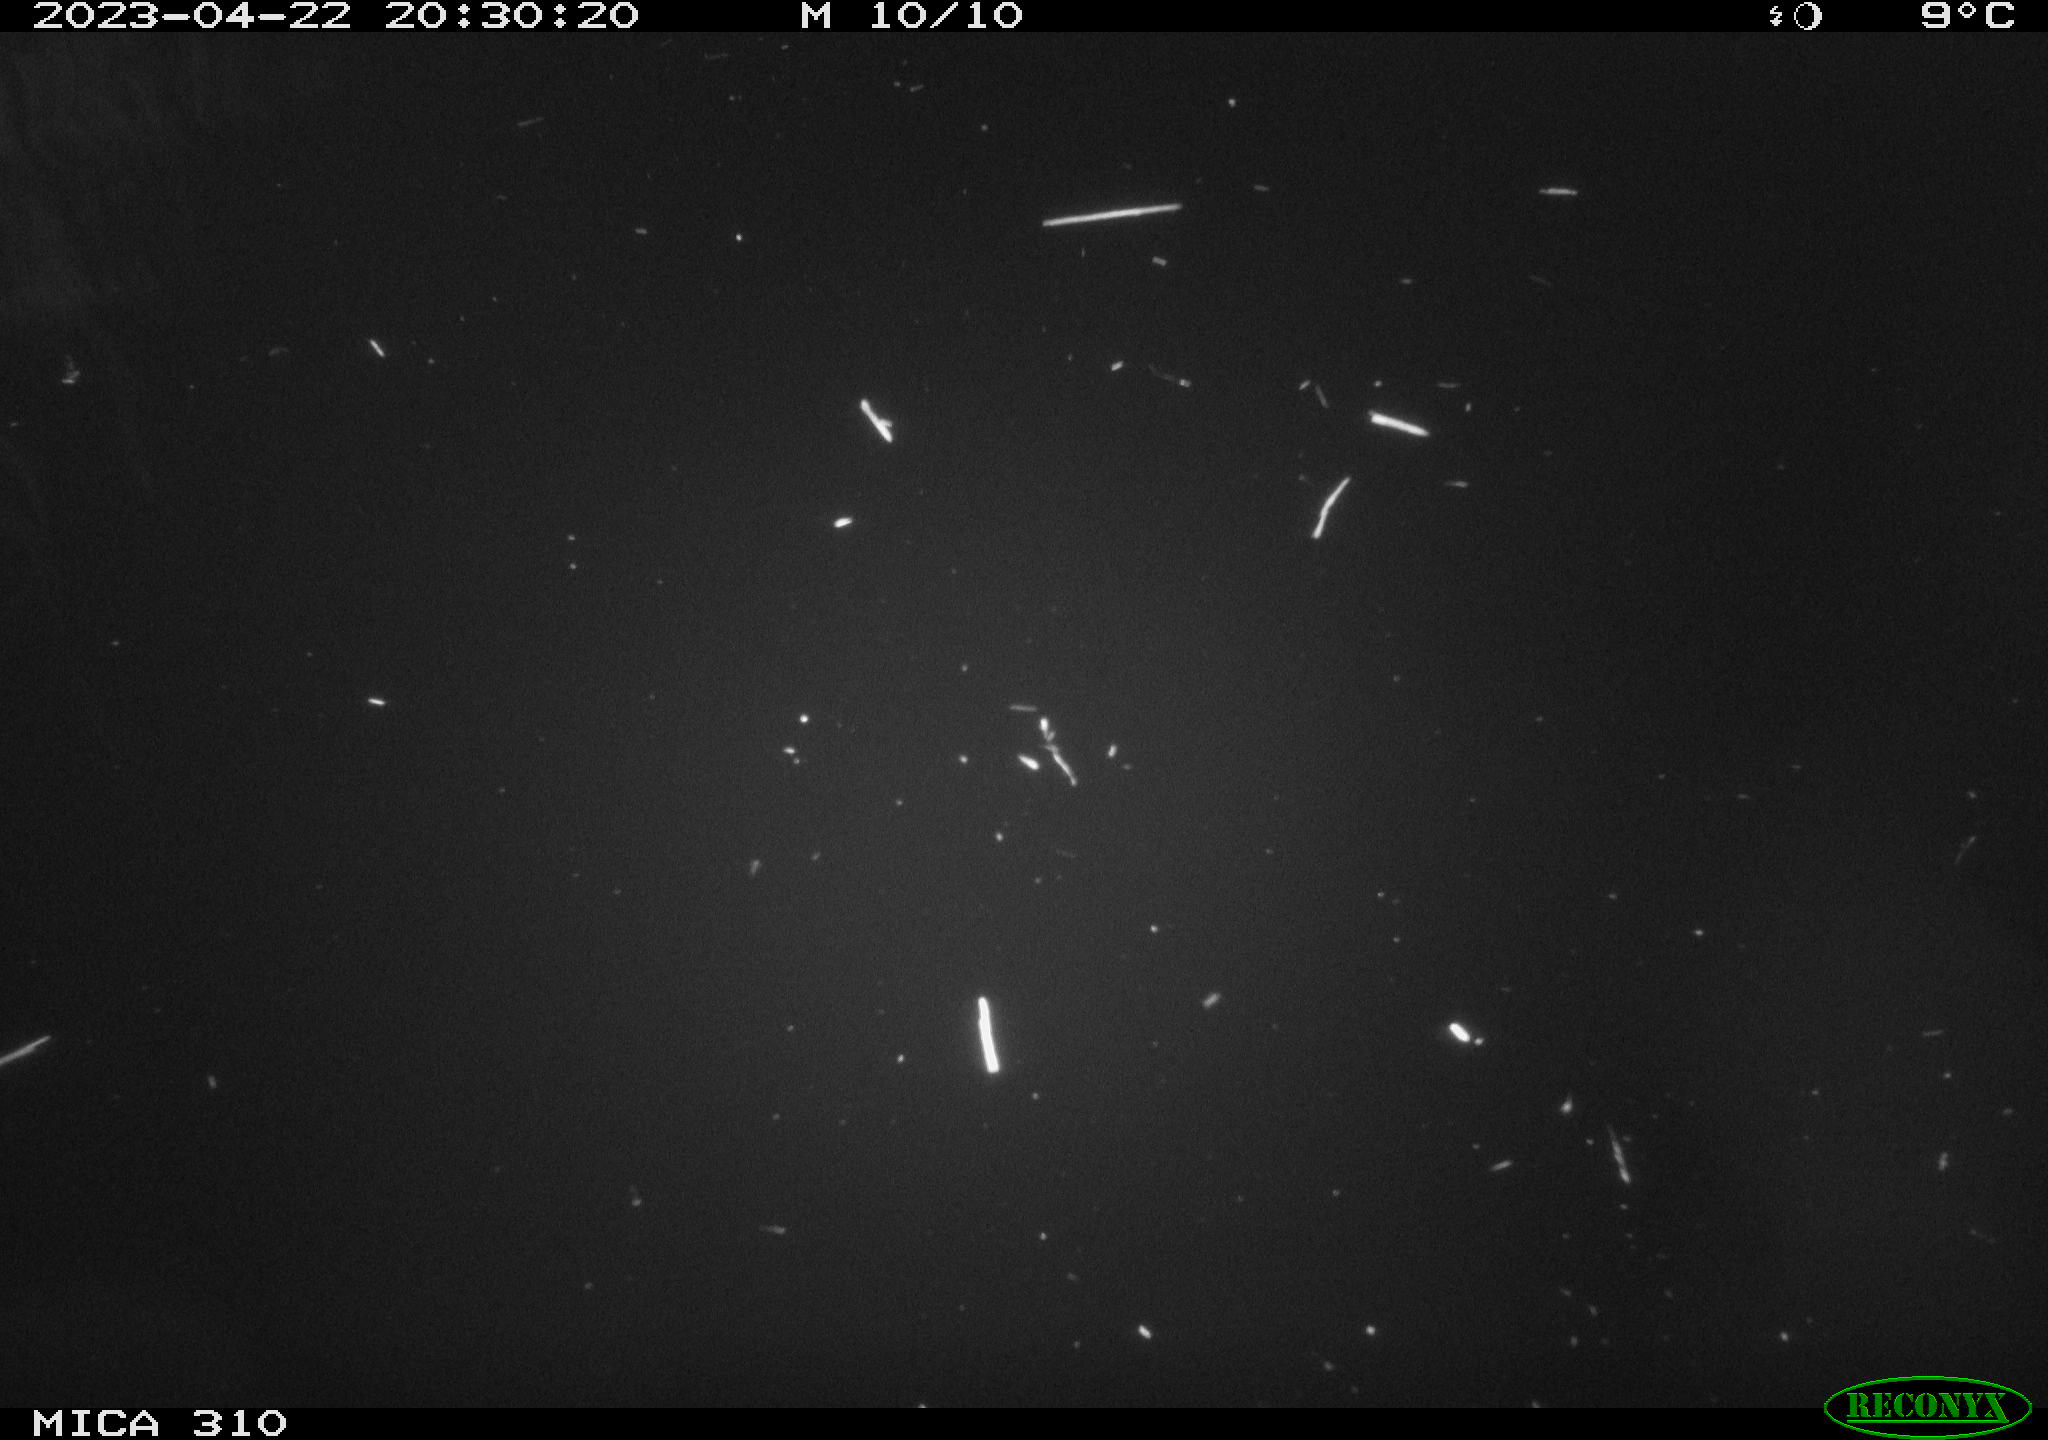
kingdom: Animalia
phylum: Chordata
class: Mammalia
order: Rodentia
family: Cricetidae
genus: Ondatra
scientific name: Ondatra zibethicus
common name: Muskrat
